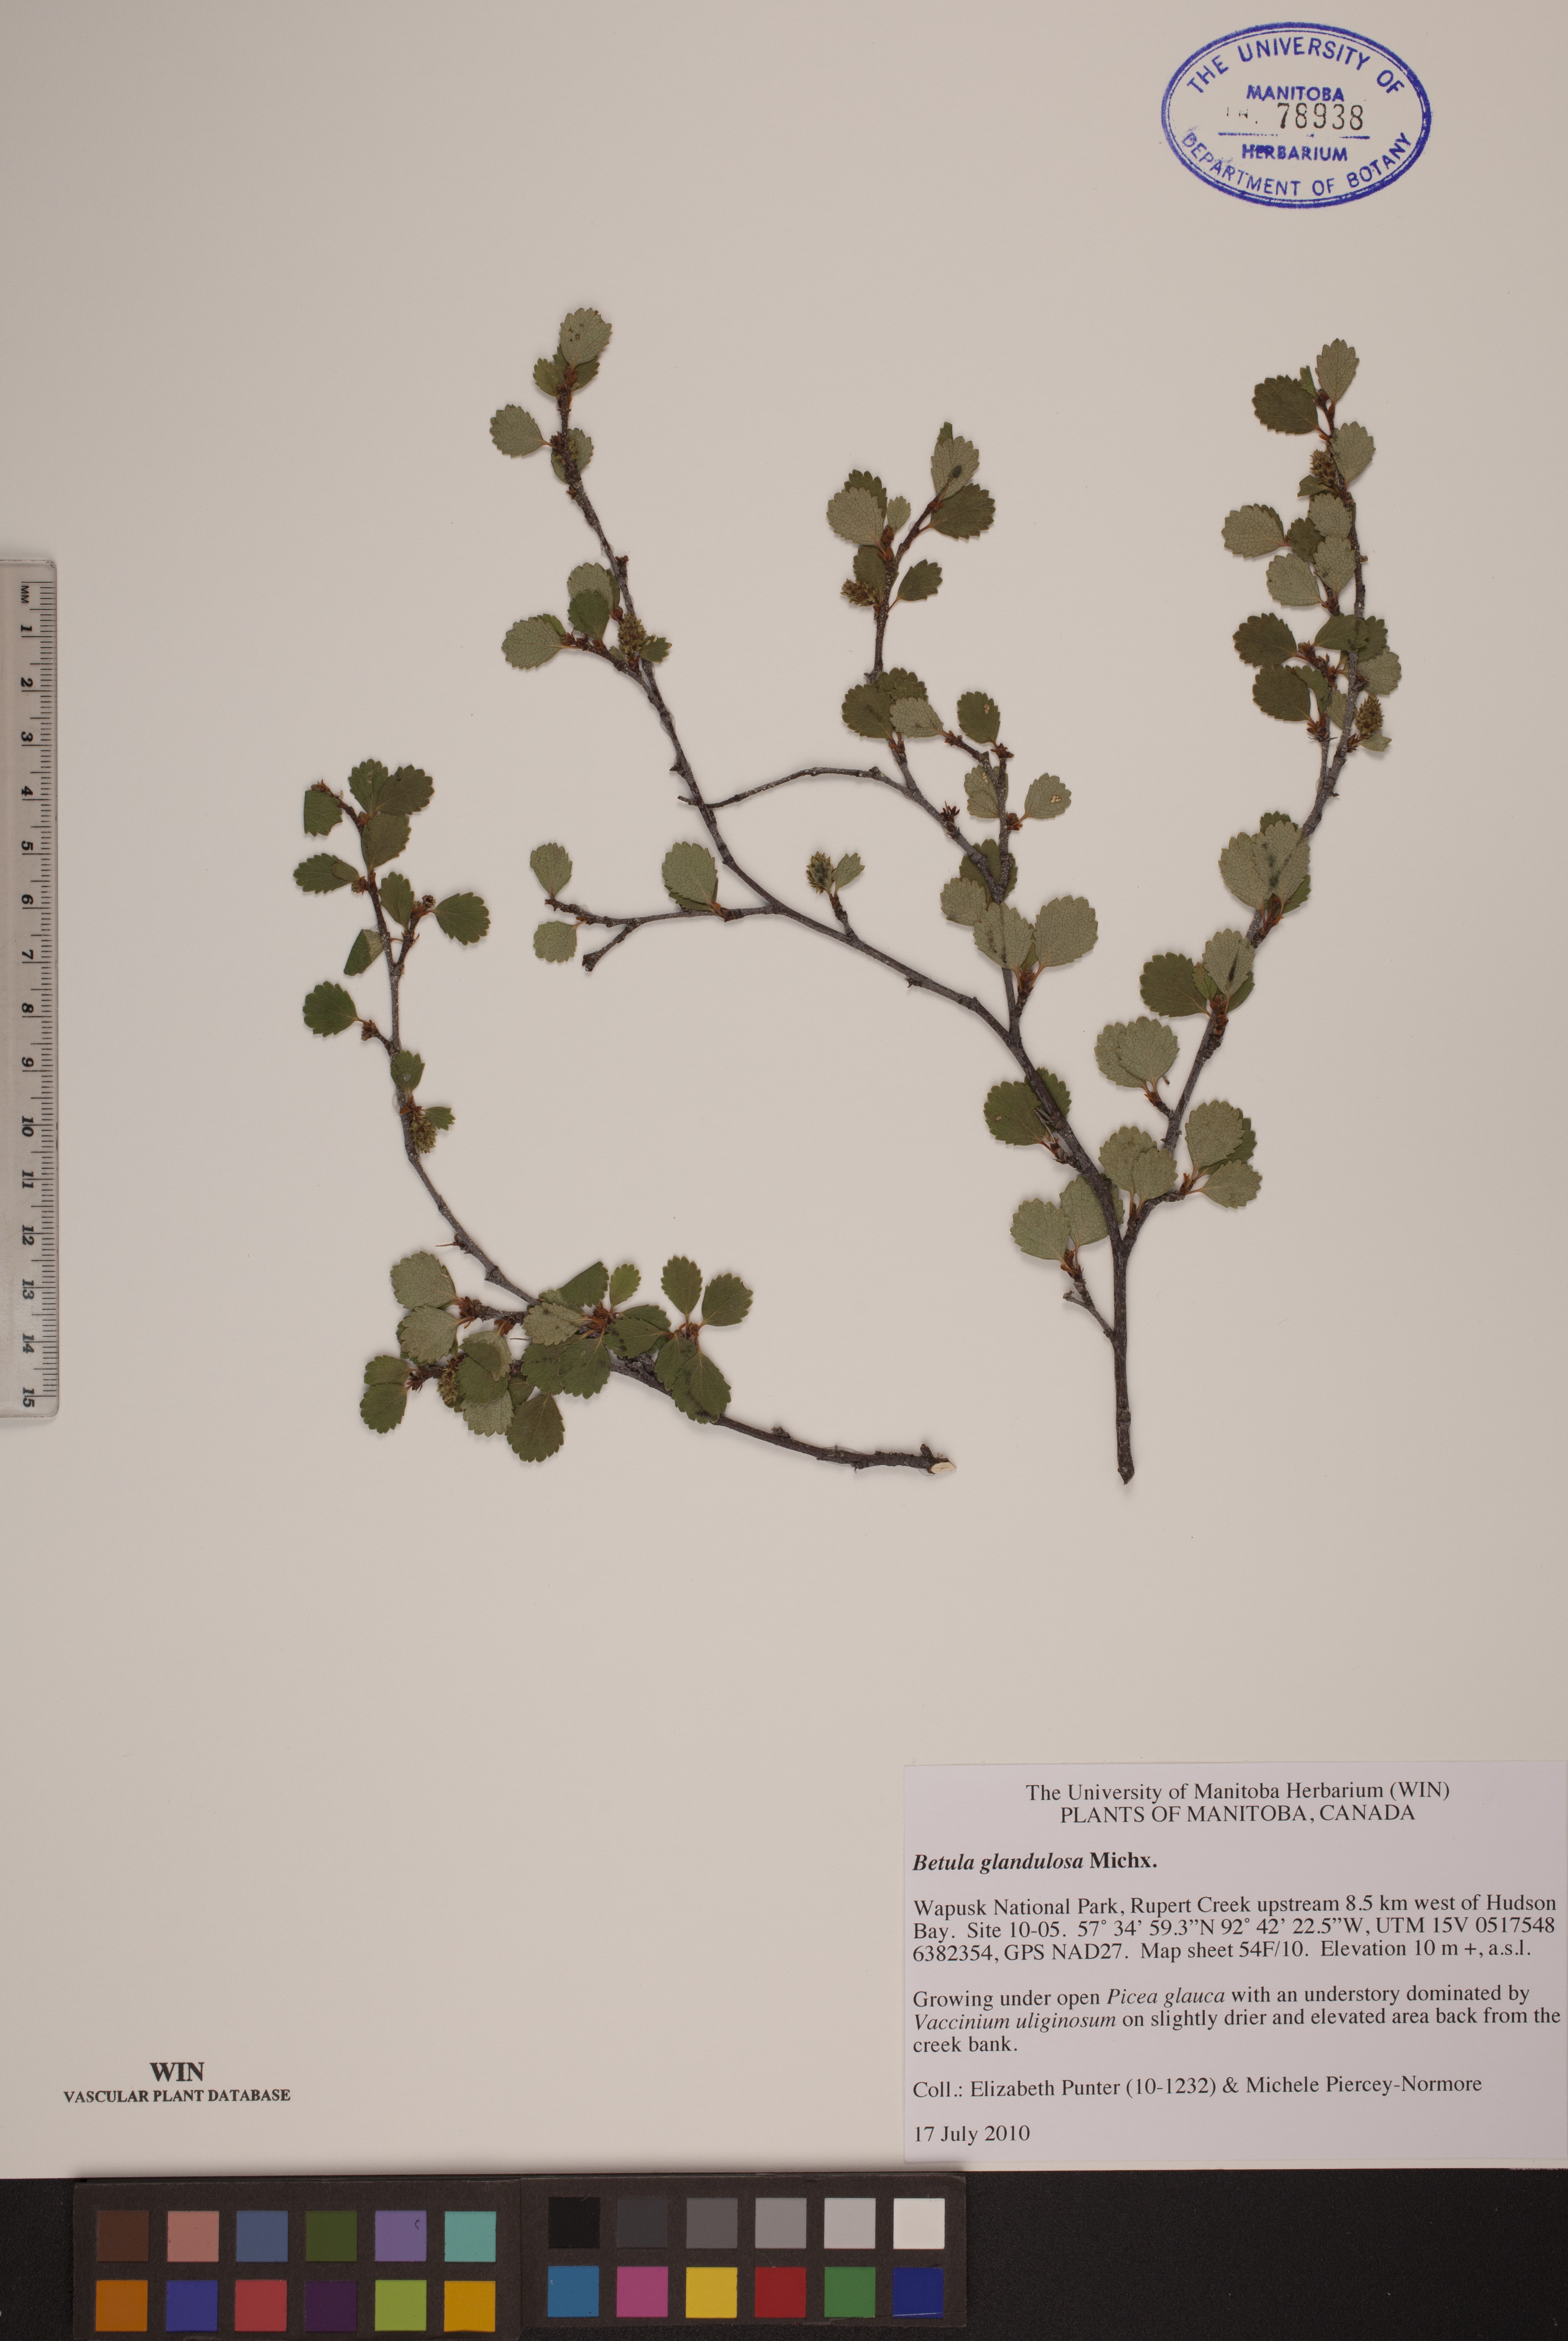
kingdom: Plantae
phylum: Tracheophyta
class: Magnoliopsida
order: Fagales
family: Betulaceae
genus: Betula
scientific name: Betula glandulosa
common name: Dwarf birch
